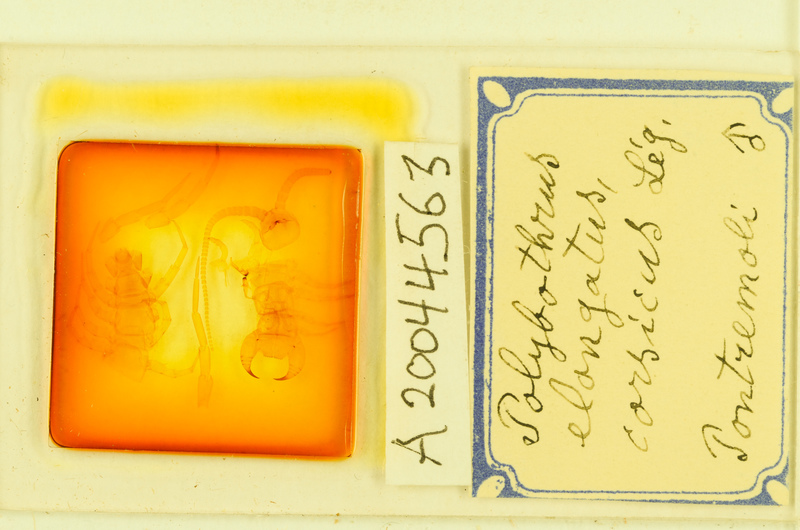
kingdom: Animalia
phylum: Arthropoda
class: Chilopoda
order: Lithobiomorpha
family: Lithobiidae
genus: Polybothrus
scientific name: Polybothrus
